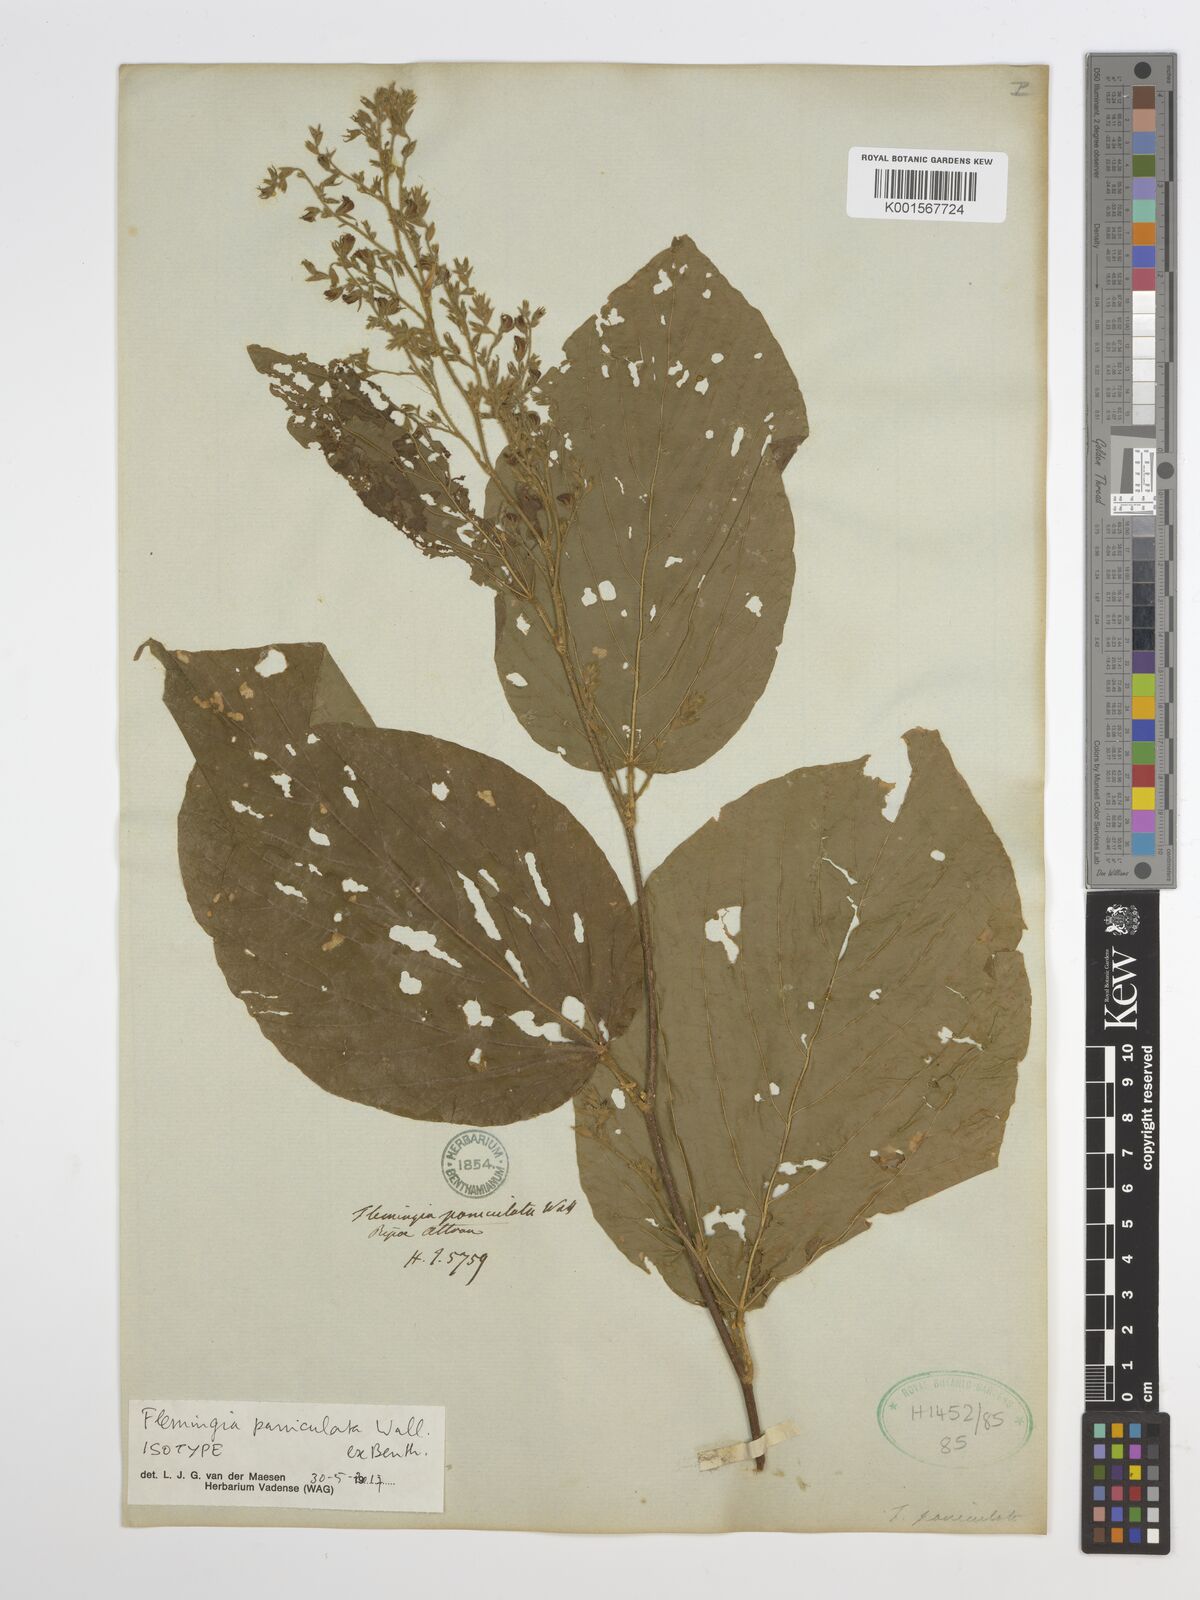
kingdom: Plantae
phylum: Tracheophyta
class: Magnoliopsida
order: Fabales
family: Fabaceae
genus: Flemingia
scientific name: Flemingia paniculata
